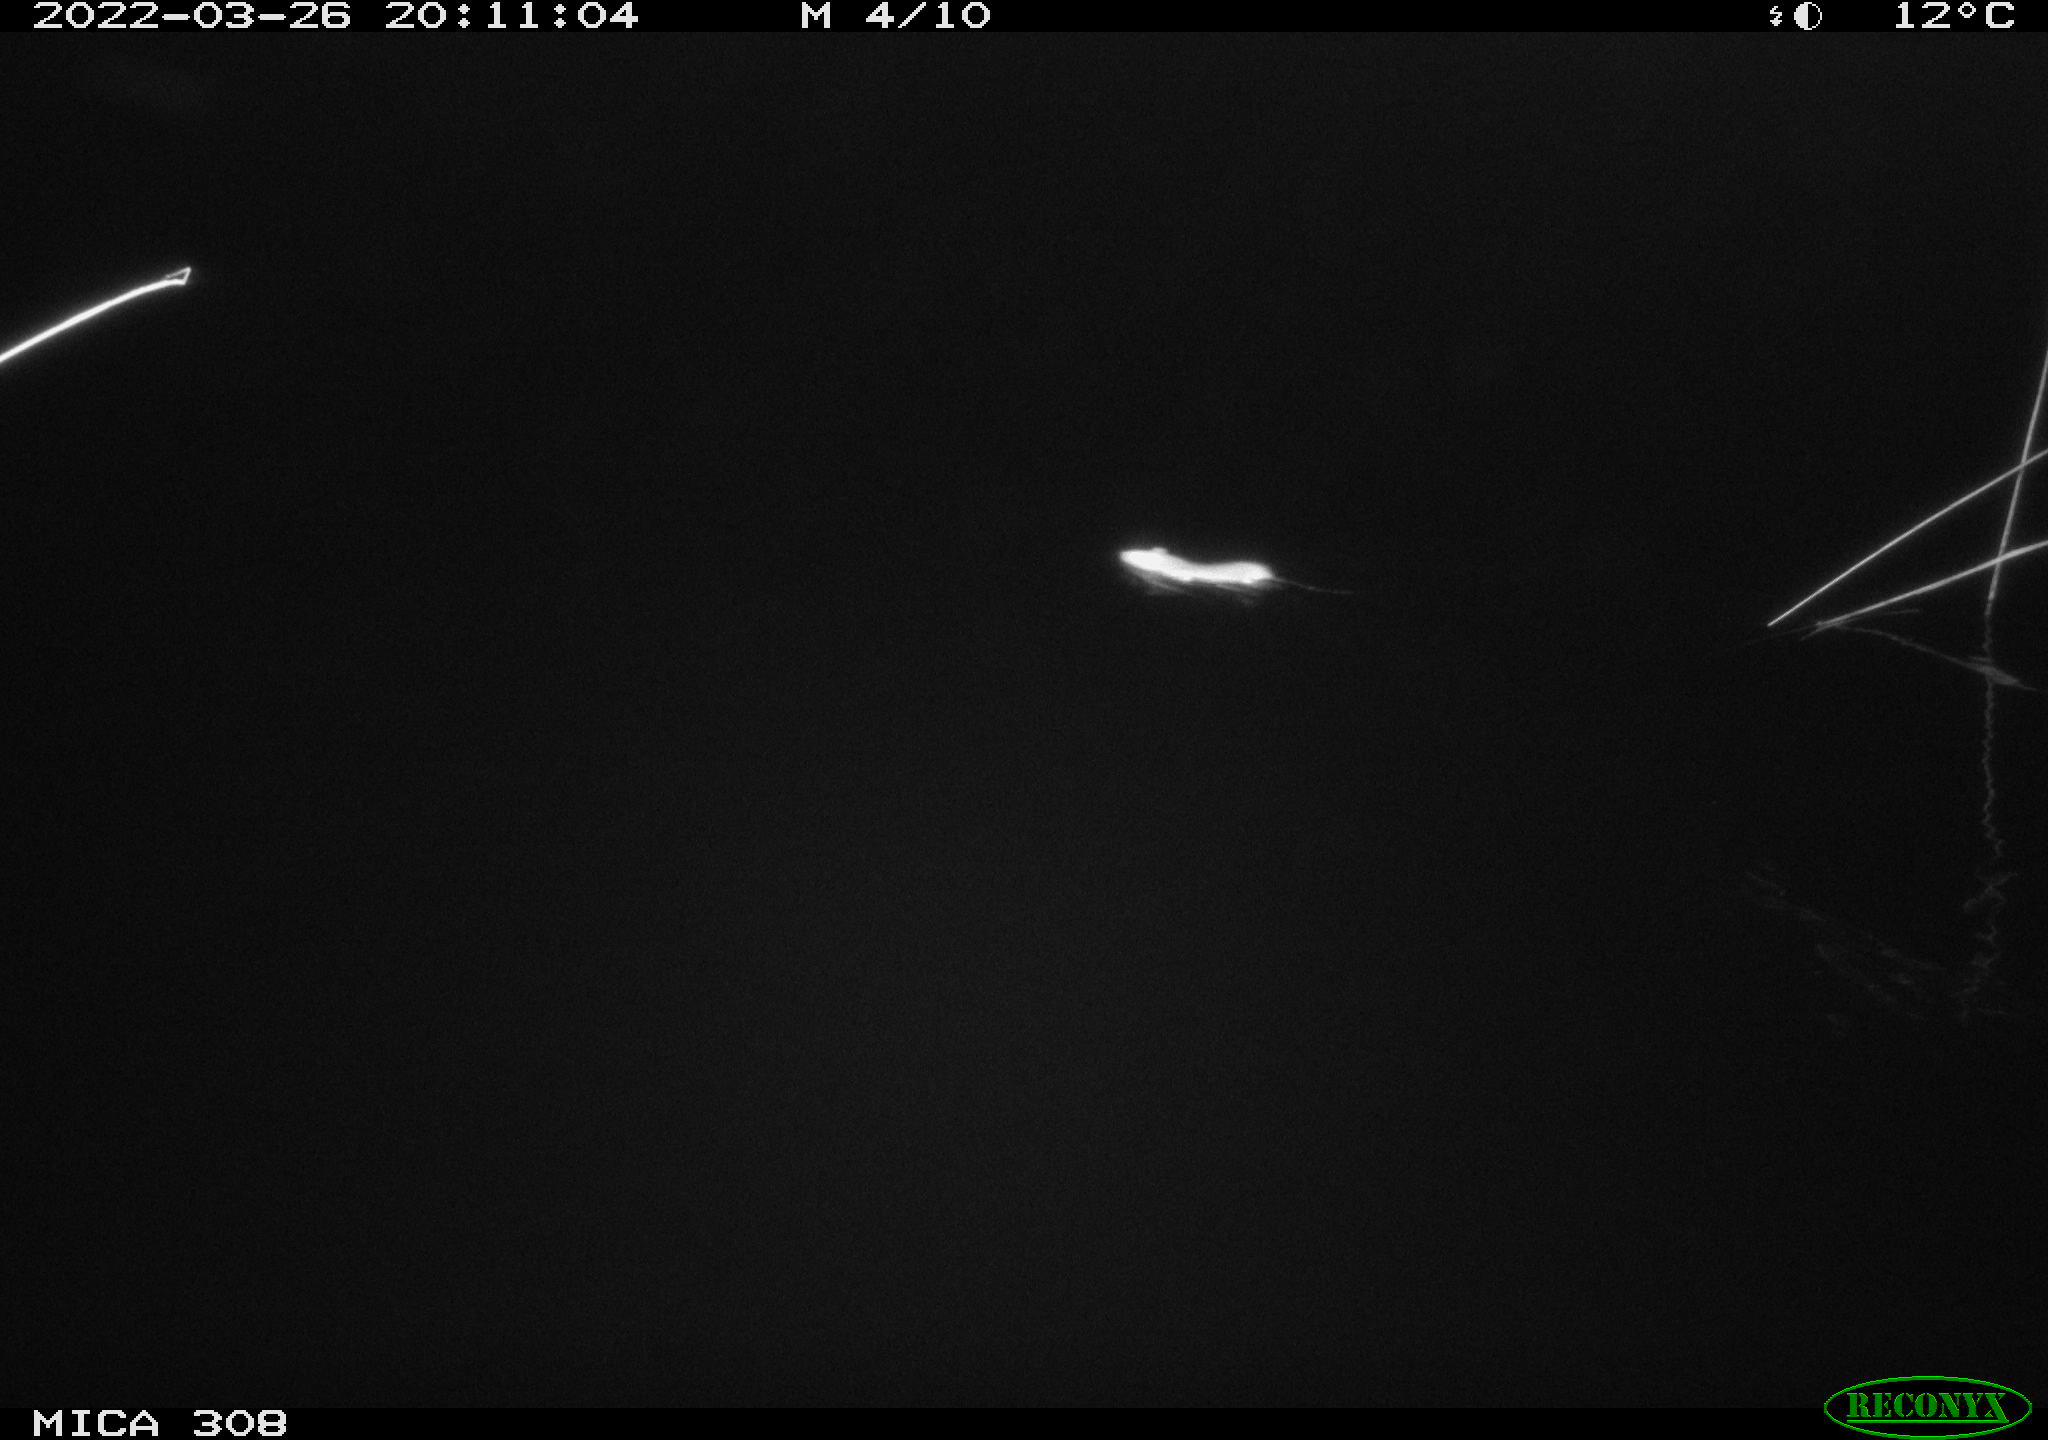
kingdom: Animalia
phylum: Chordata
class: Mammalia
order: Rodentia
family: Muridae
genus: Rattus
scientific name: Rattus norvegicus
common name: Brown rat
